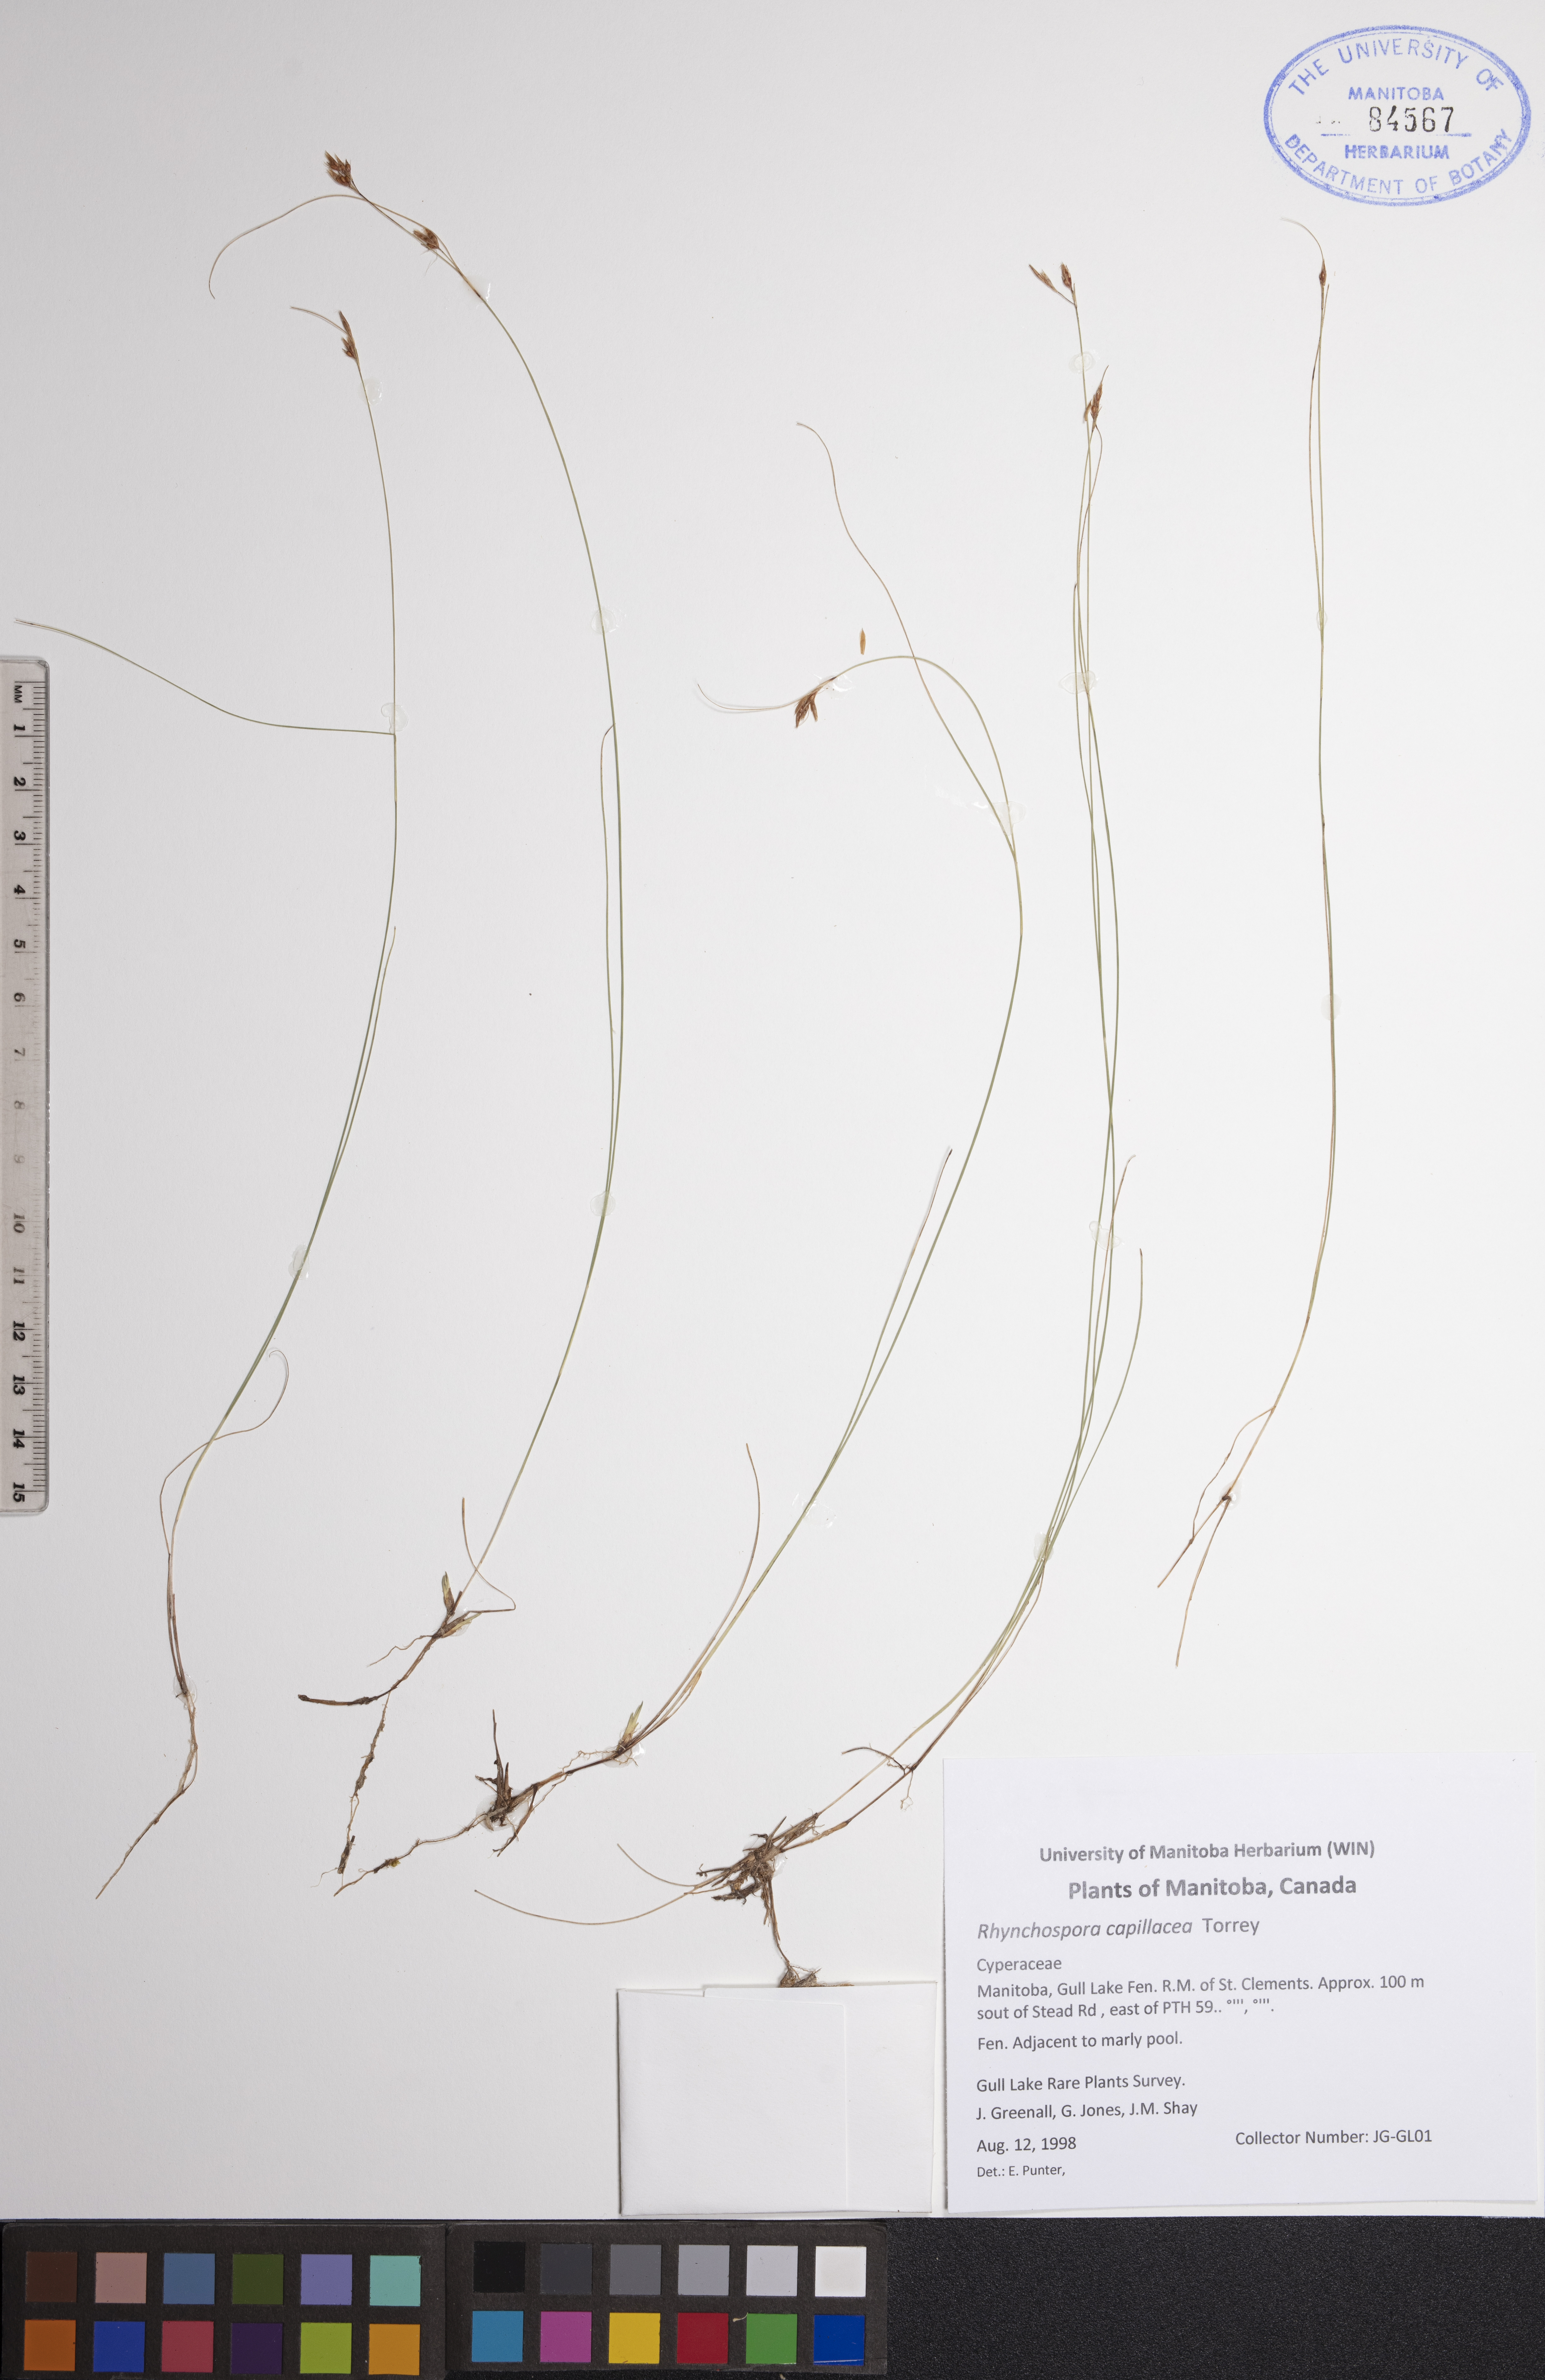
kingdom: Plantae
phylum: Tracheophyta
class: Liliopsida
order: Poales
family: Cyperaceae
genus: Rhynchospora
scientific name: Rhynchospora capillacea
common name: Capillary beakrush
